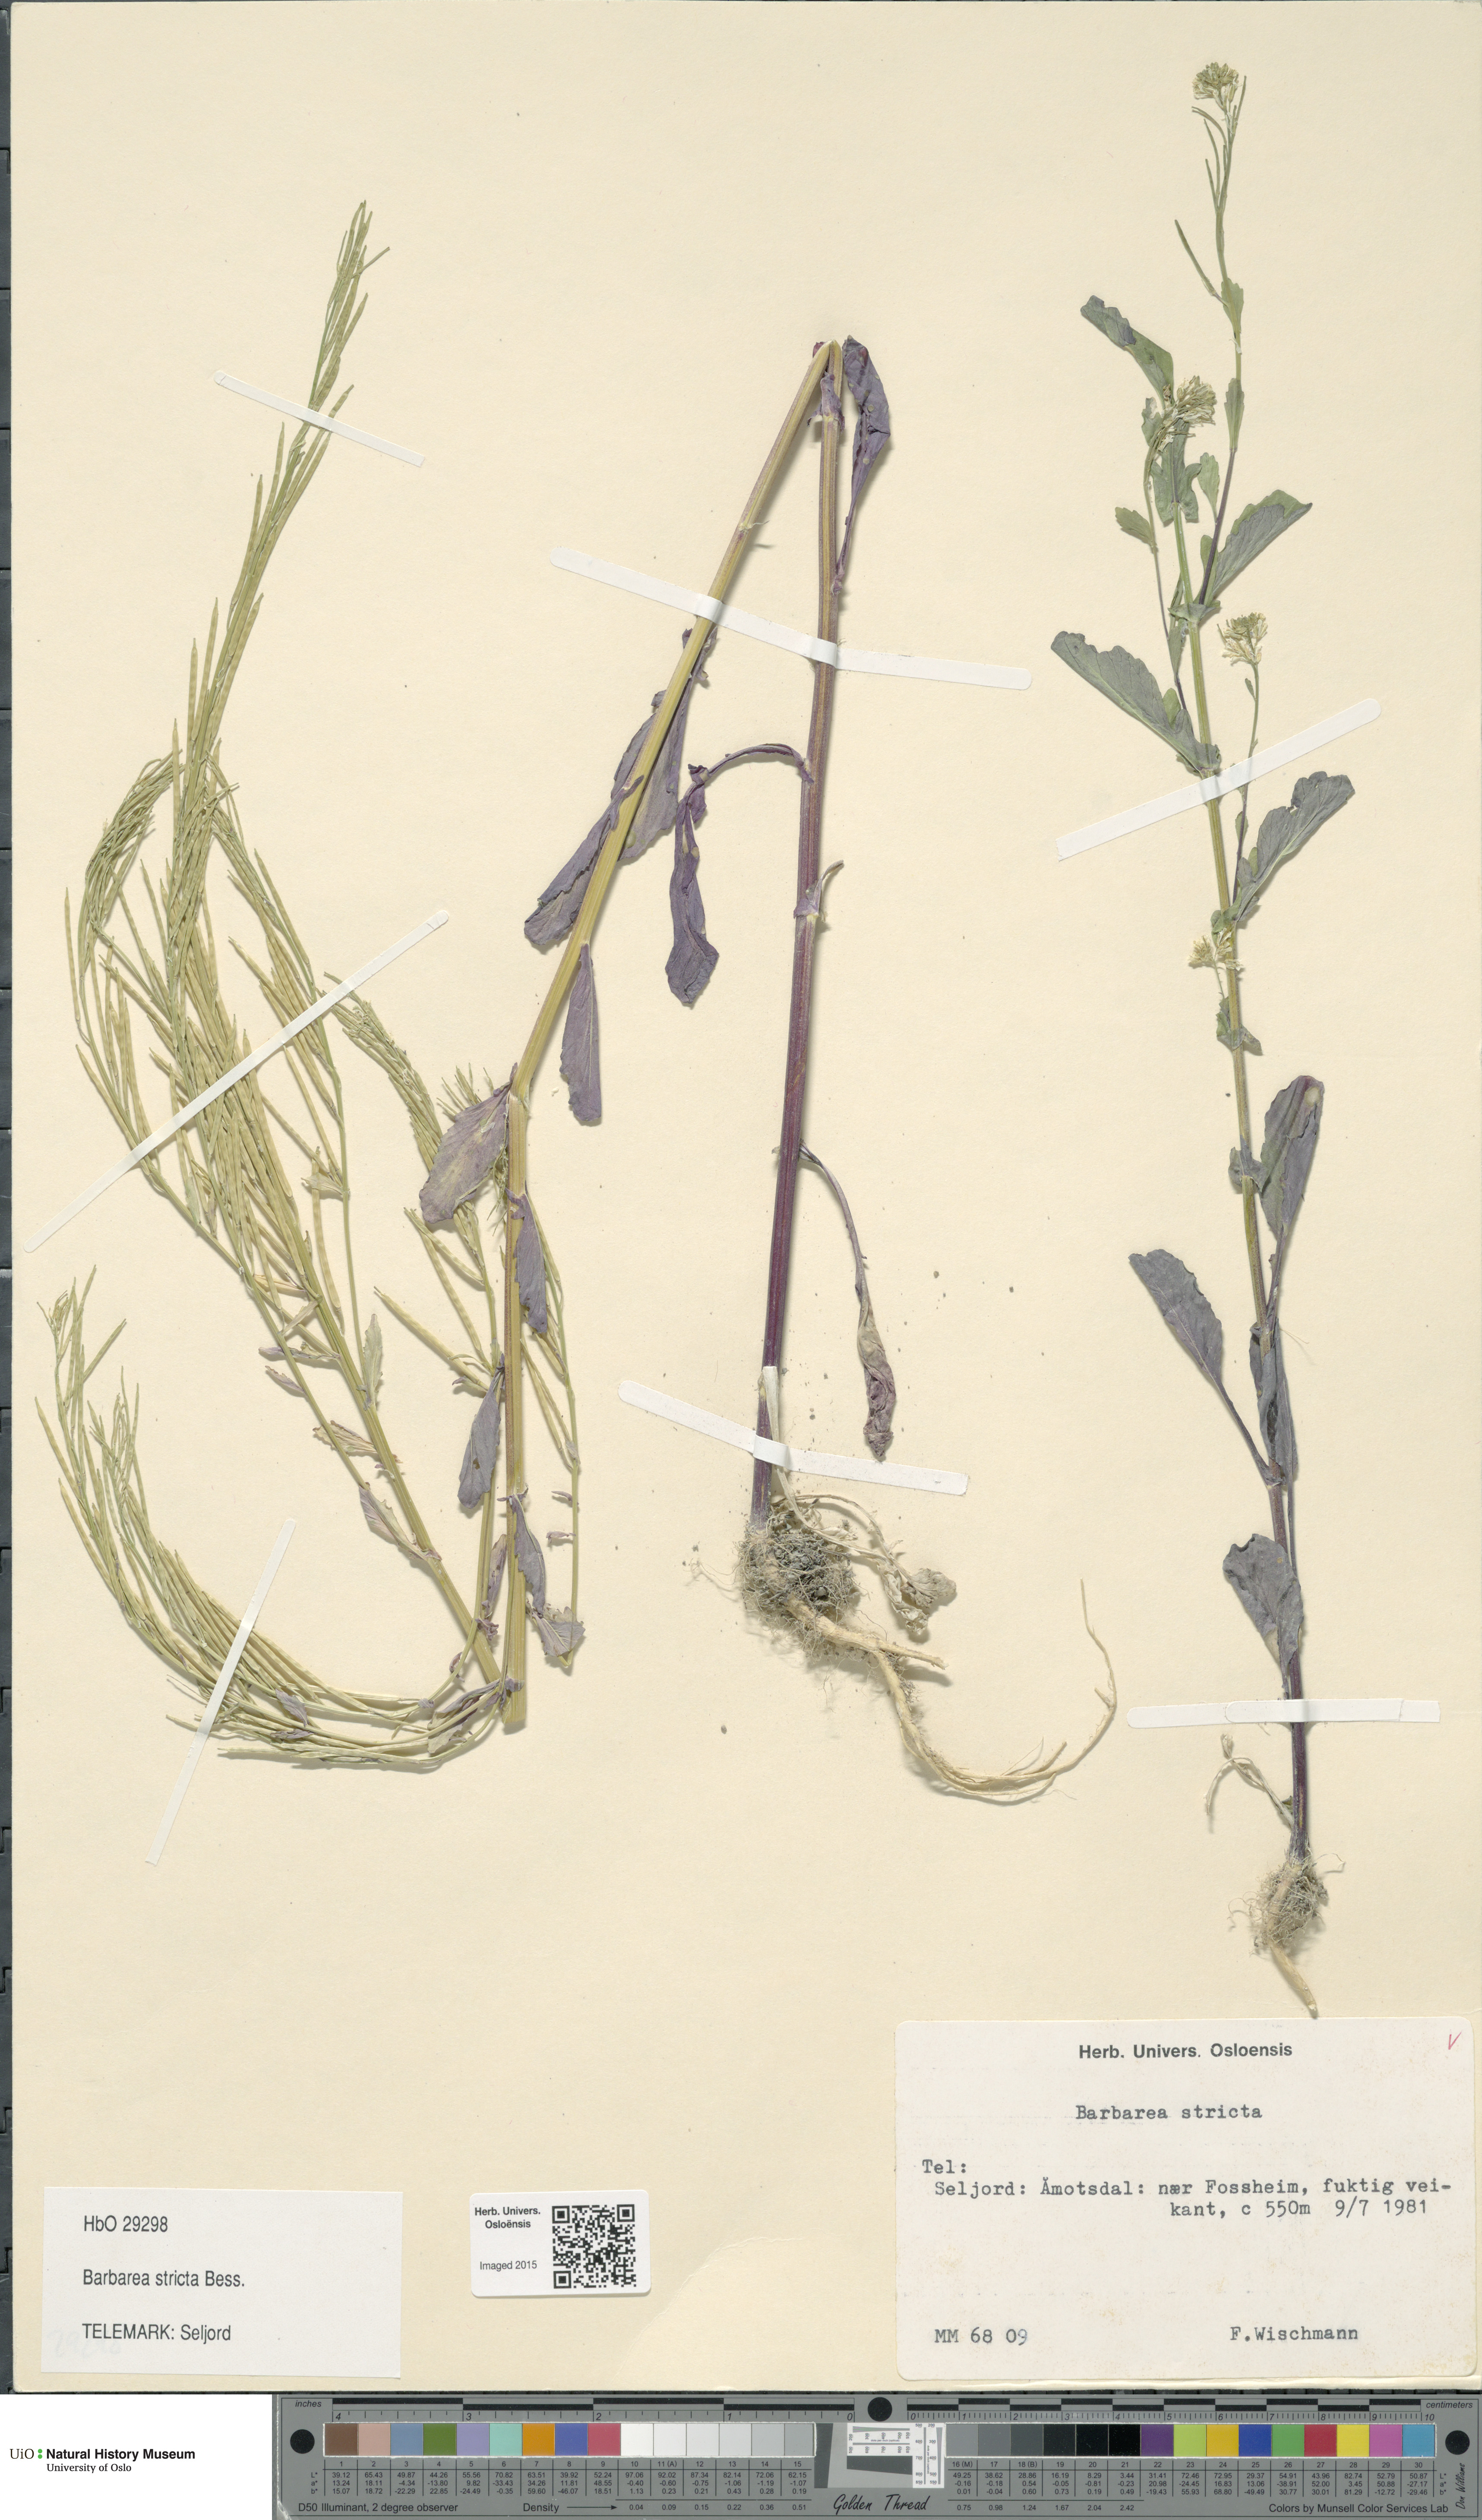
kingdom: Plantae
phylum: Tracheophyta
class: Magnoliopsida
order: Brassicales
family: Brassicaceae
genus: Barbarea
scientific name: Barbarea stricta
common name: Small-flowered winter-cress
